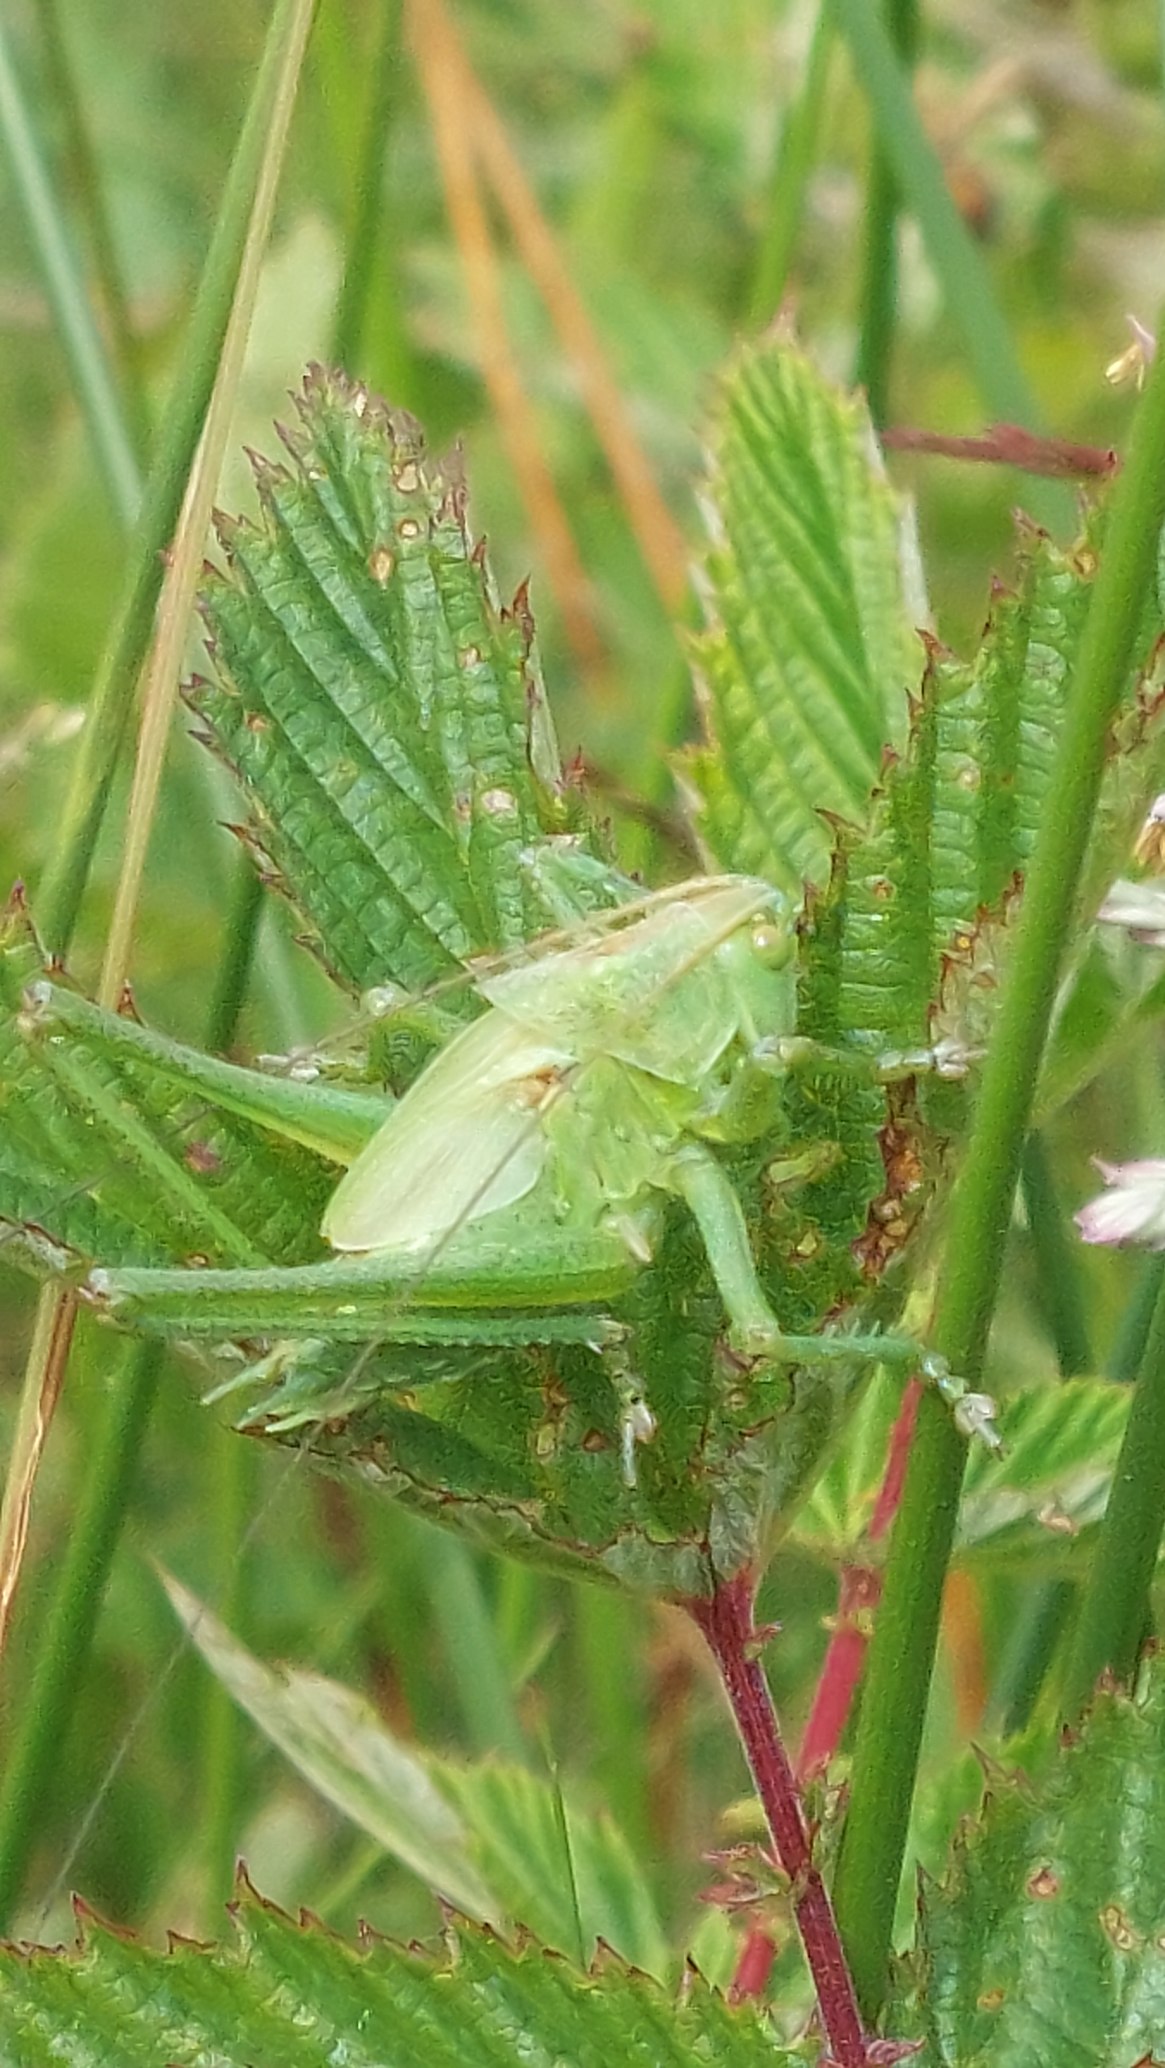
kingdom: Animalia
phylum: Arthropoda
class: Insecta
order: Orthoptera
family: Tettigoniidae
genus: Tettigonia
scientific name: Tettigonia viridissima
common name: Stor grøn løvgræshoppe
